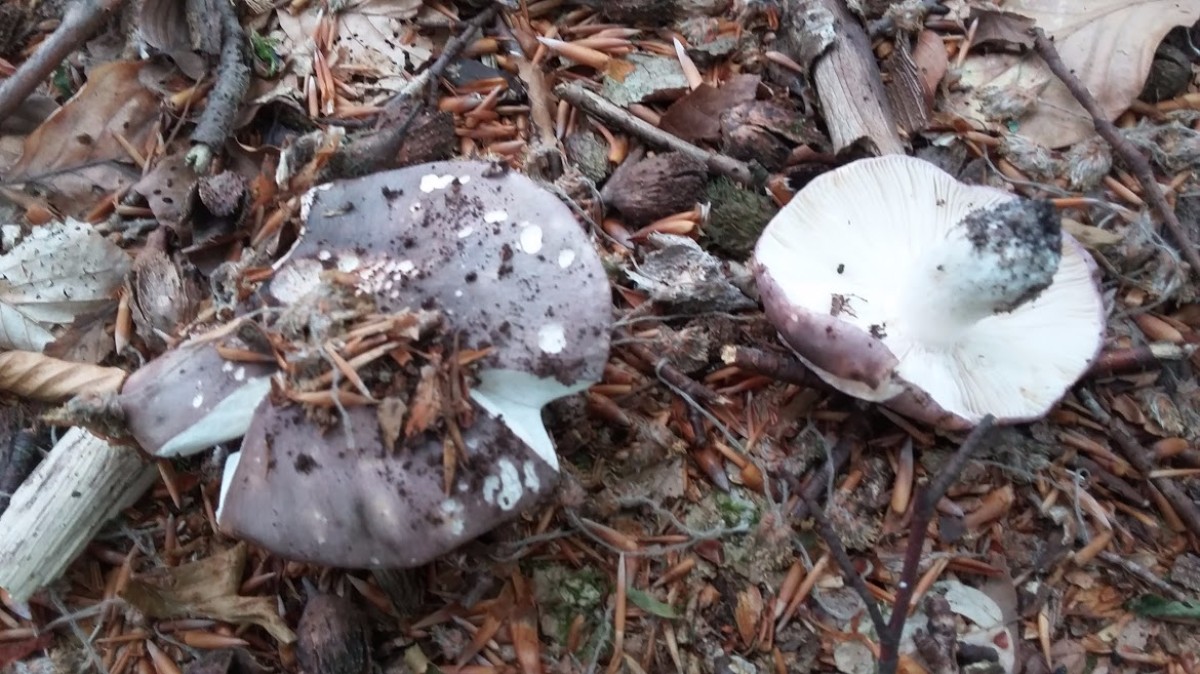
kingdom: Fungi
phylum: Basidiomycota
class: Agaricomycetes
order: Russulales
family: Russulaceae
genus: Russula
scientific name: Russula cyanoxantha
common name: broget skørhat
